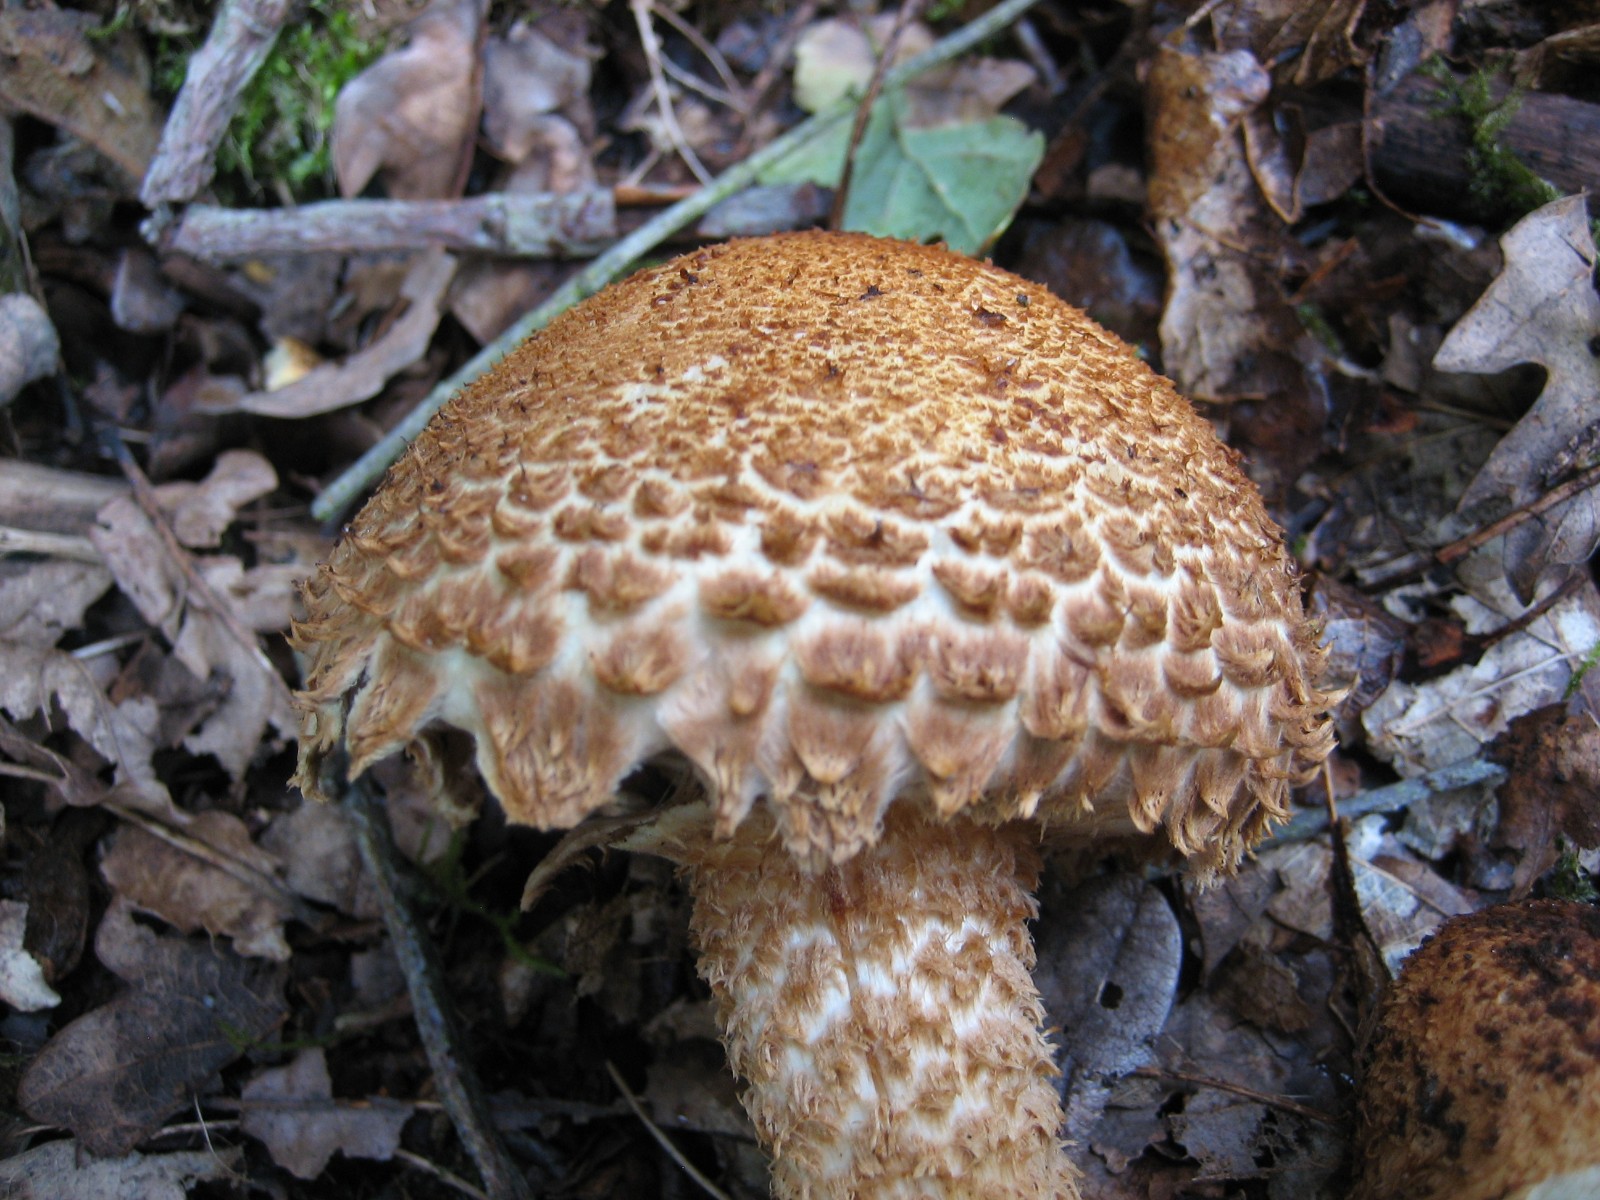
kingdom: Fungi
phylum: Basidiomycota
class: Agaricomycetes
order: Agaricales
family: Strophariaceae
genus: Pholiota
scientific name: Pholiota squarrosa
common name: krumskællet skælhat
